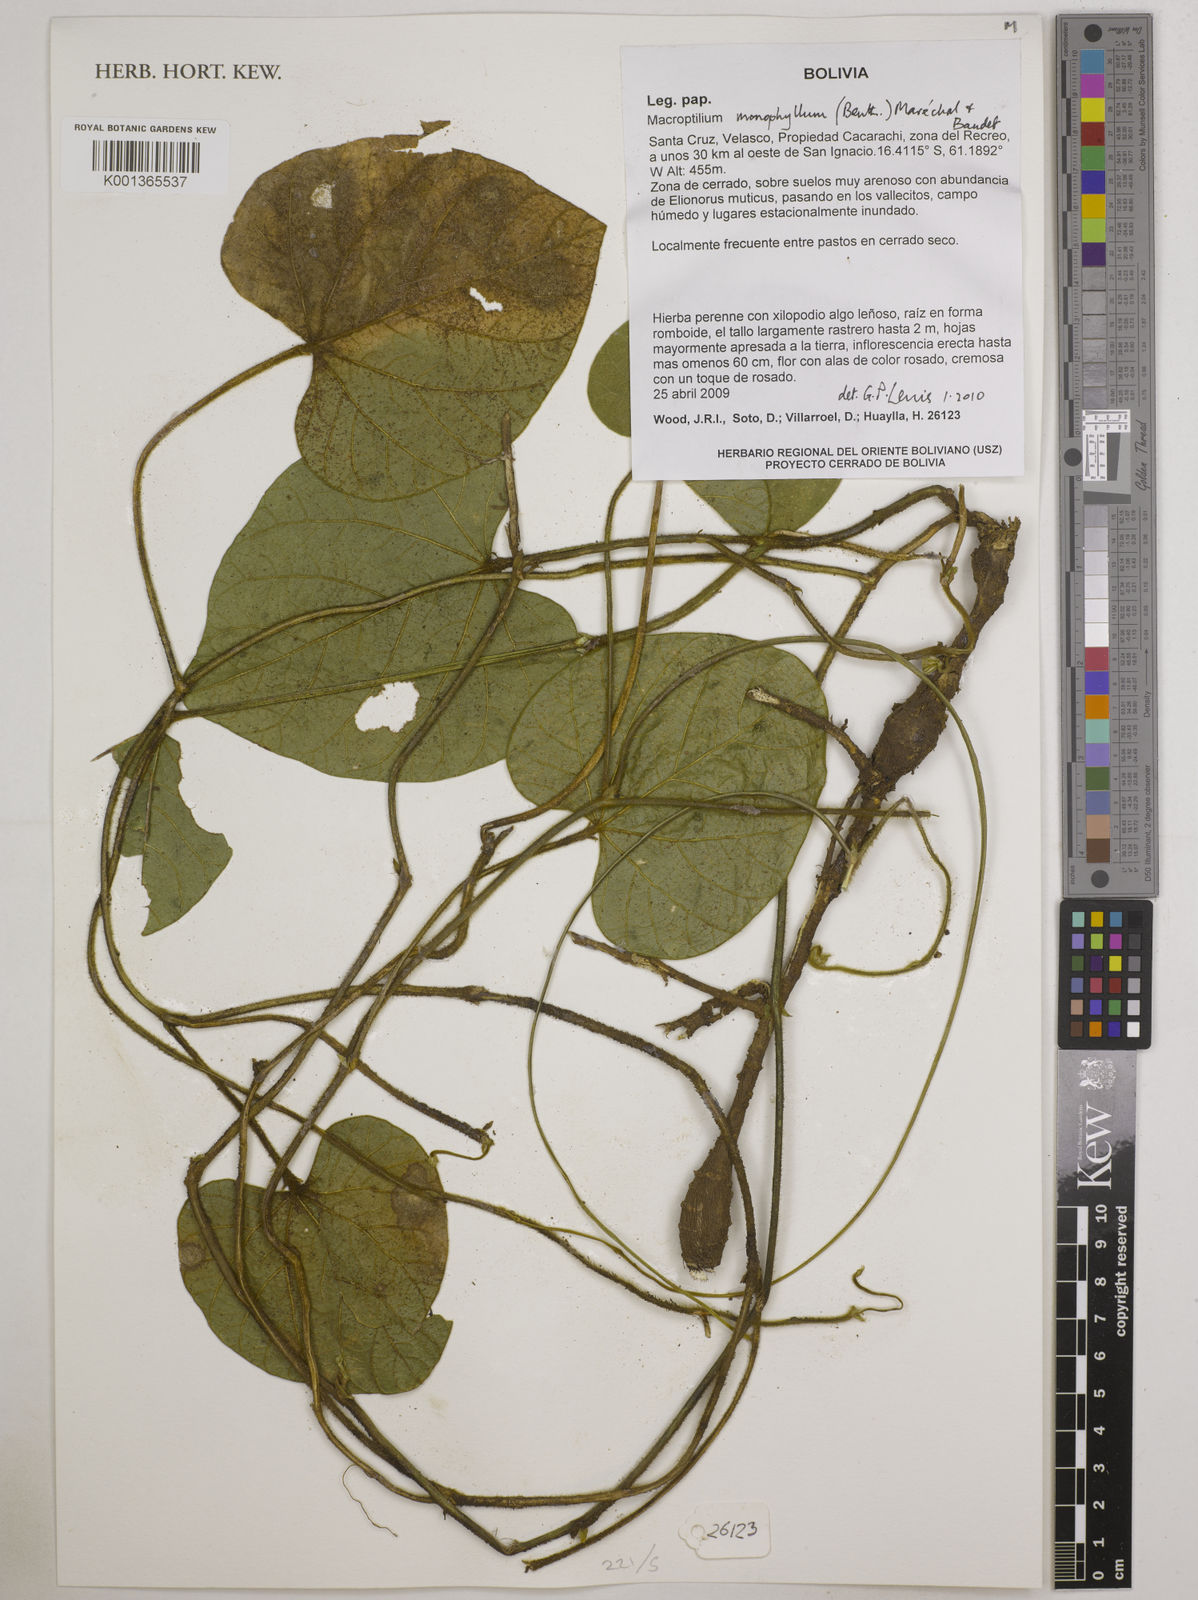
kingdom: Plantae
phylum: Tracheophyta
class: Magnoliopsida
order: Fabales
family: Fabaceae
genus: Macroptilium
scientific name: Macroptilium monophyllum
